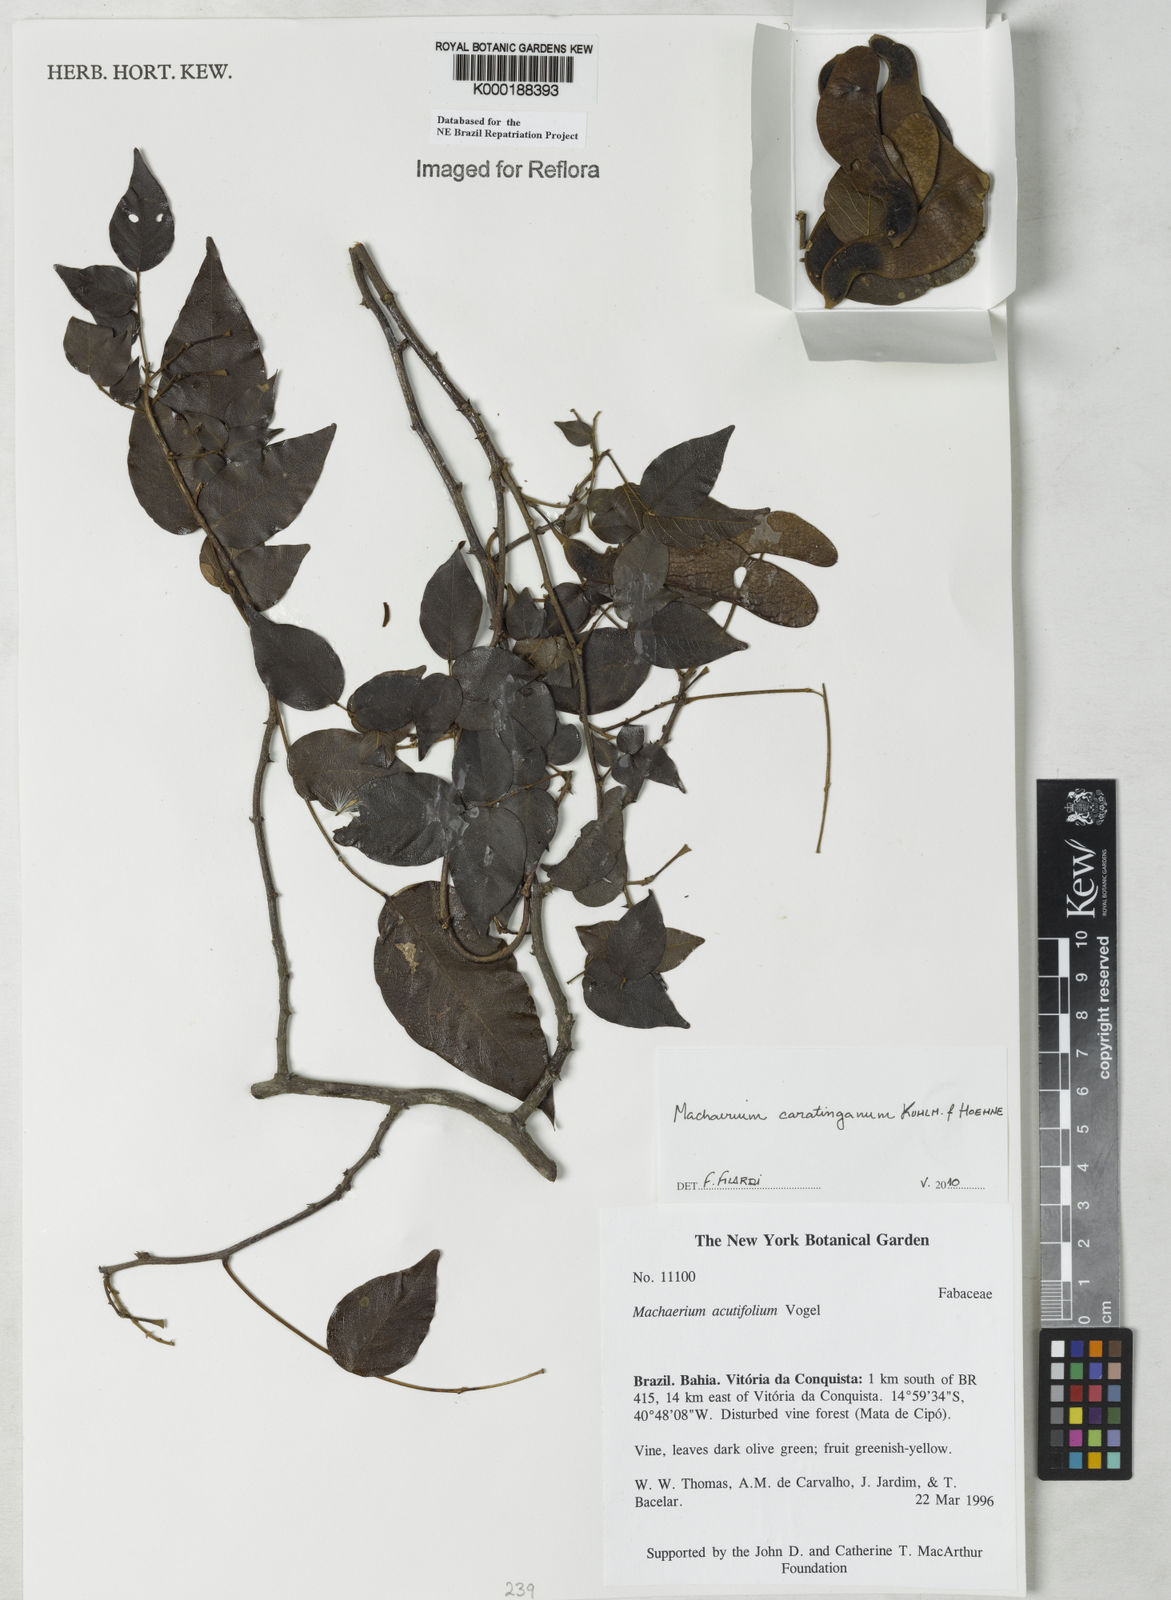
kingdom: Plantae
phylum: Tracheophyta
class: Magnoliopsida
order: Fabales
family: Fabaceae
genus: Machaerium
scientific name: Machaerium acutifolium
